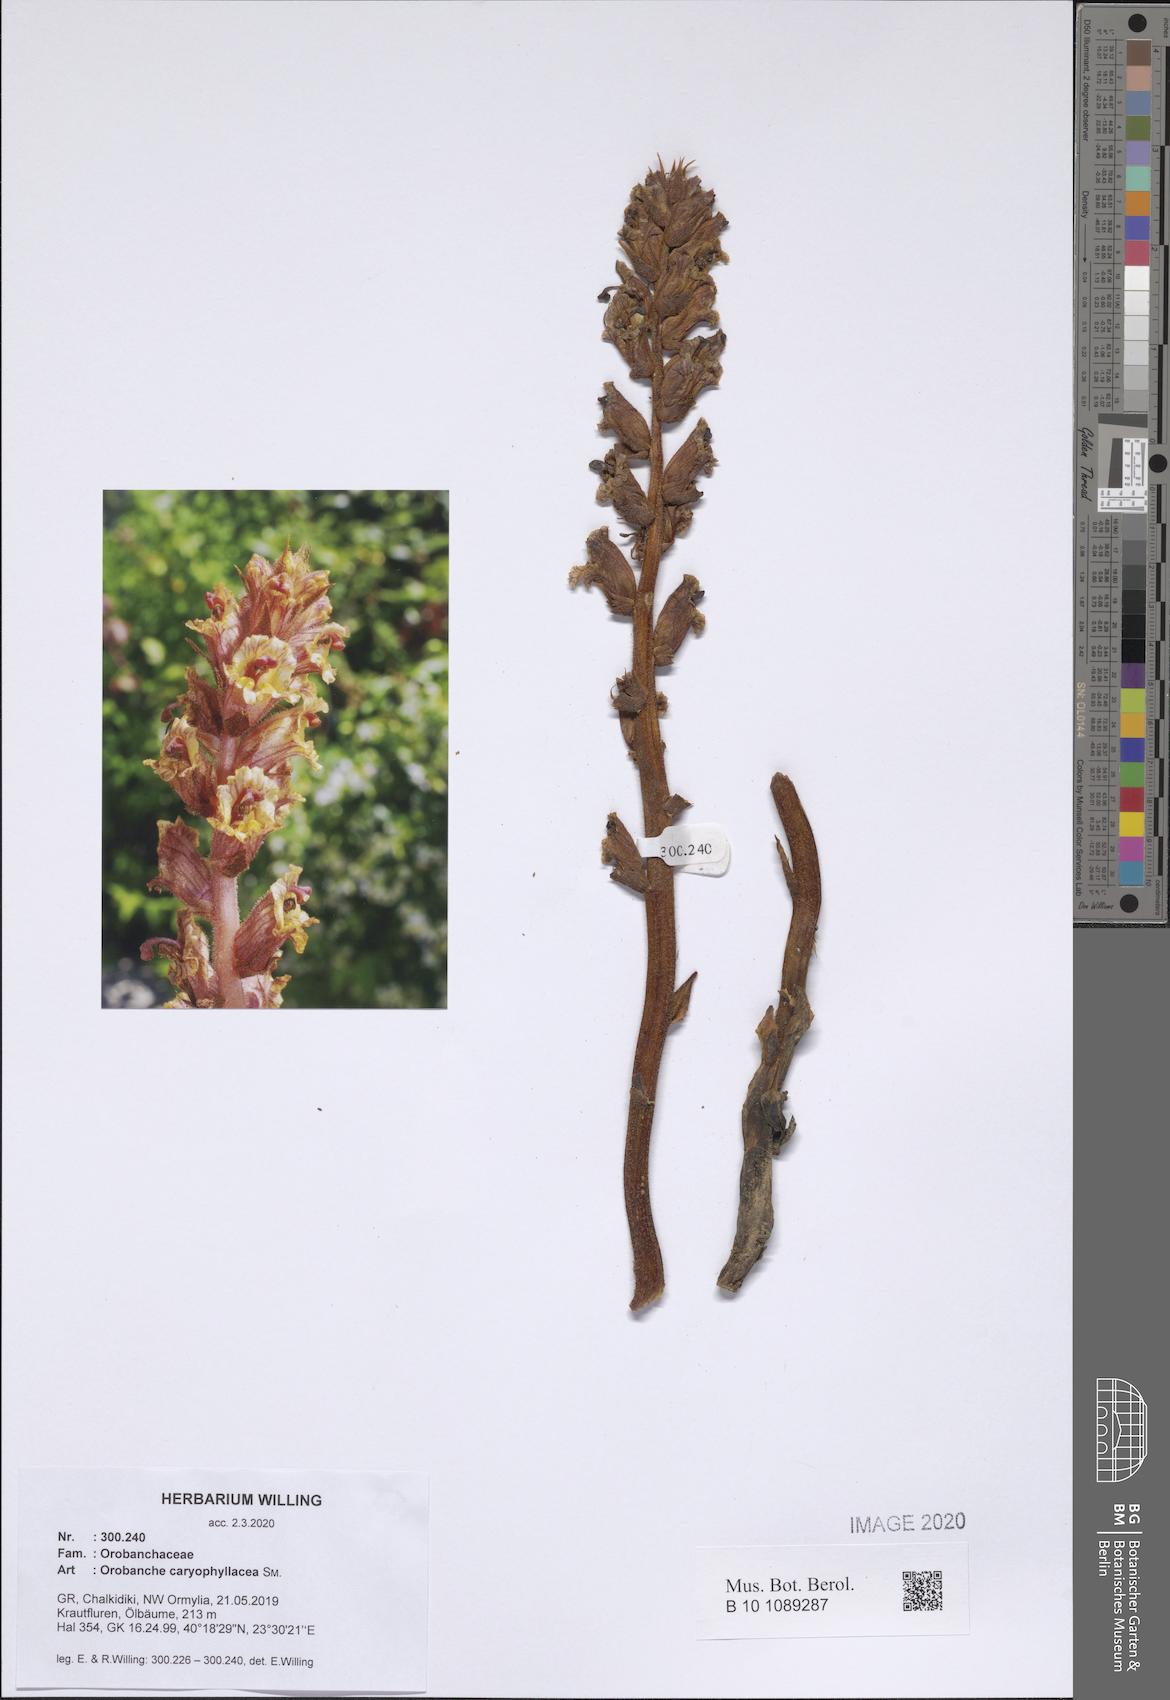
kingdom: Plantae
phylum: Tracheophyta
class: Magnoliopsida
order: Lamiales
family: Orobanchaceae
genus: Orobanche
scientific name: Orobanche caryophyllacea
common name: Bedstraw broomrape
